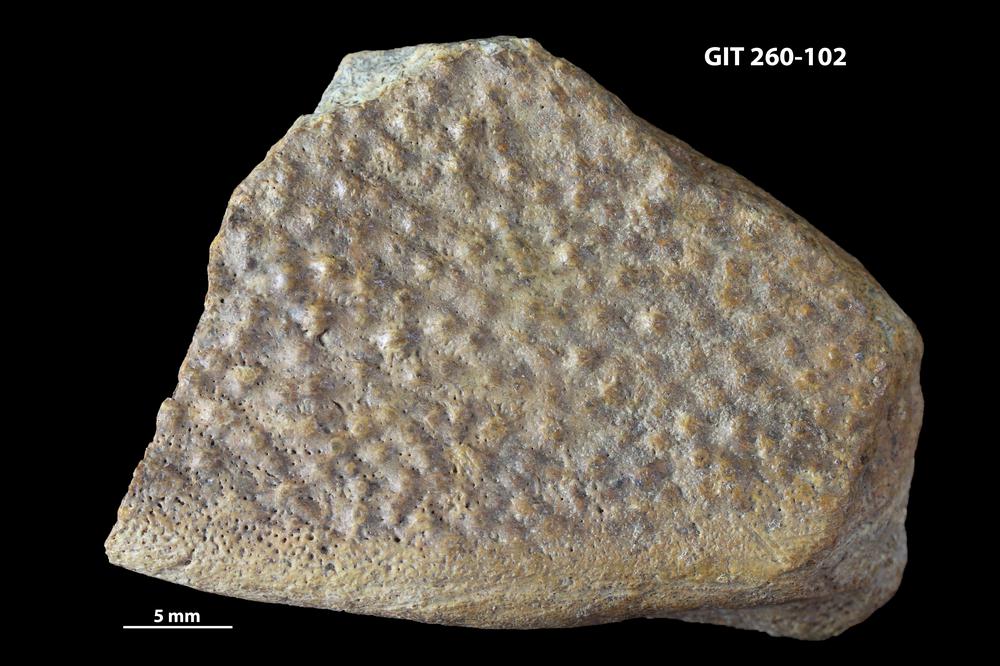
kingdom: Animalia
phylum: Chordata
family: Homostiidae
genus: Homostius
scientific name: Homostius
